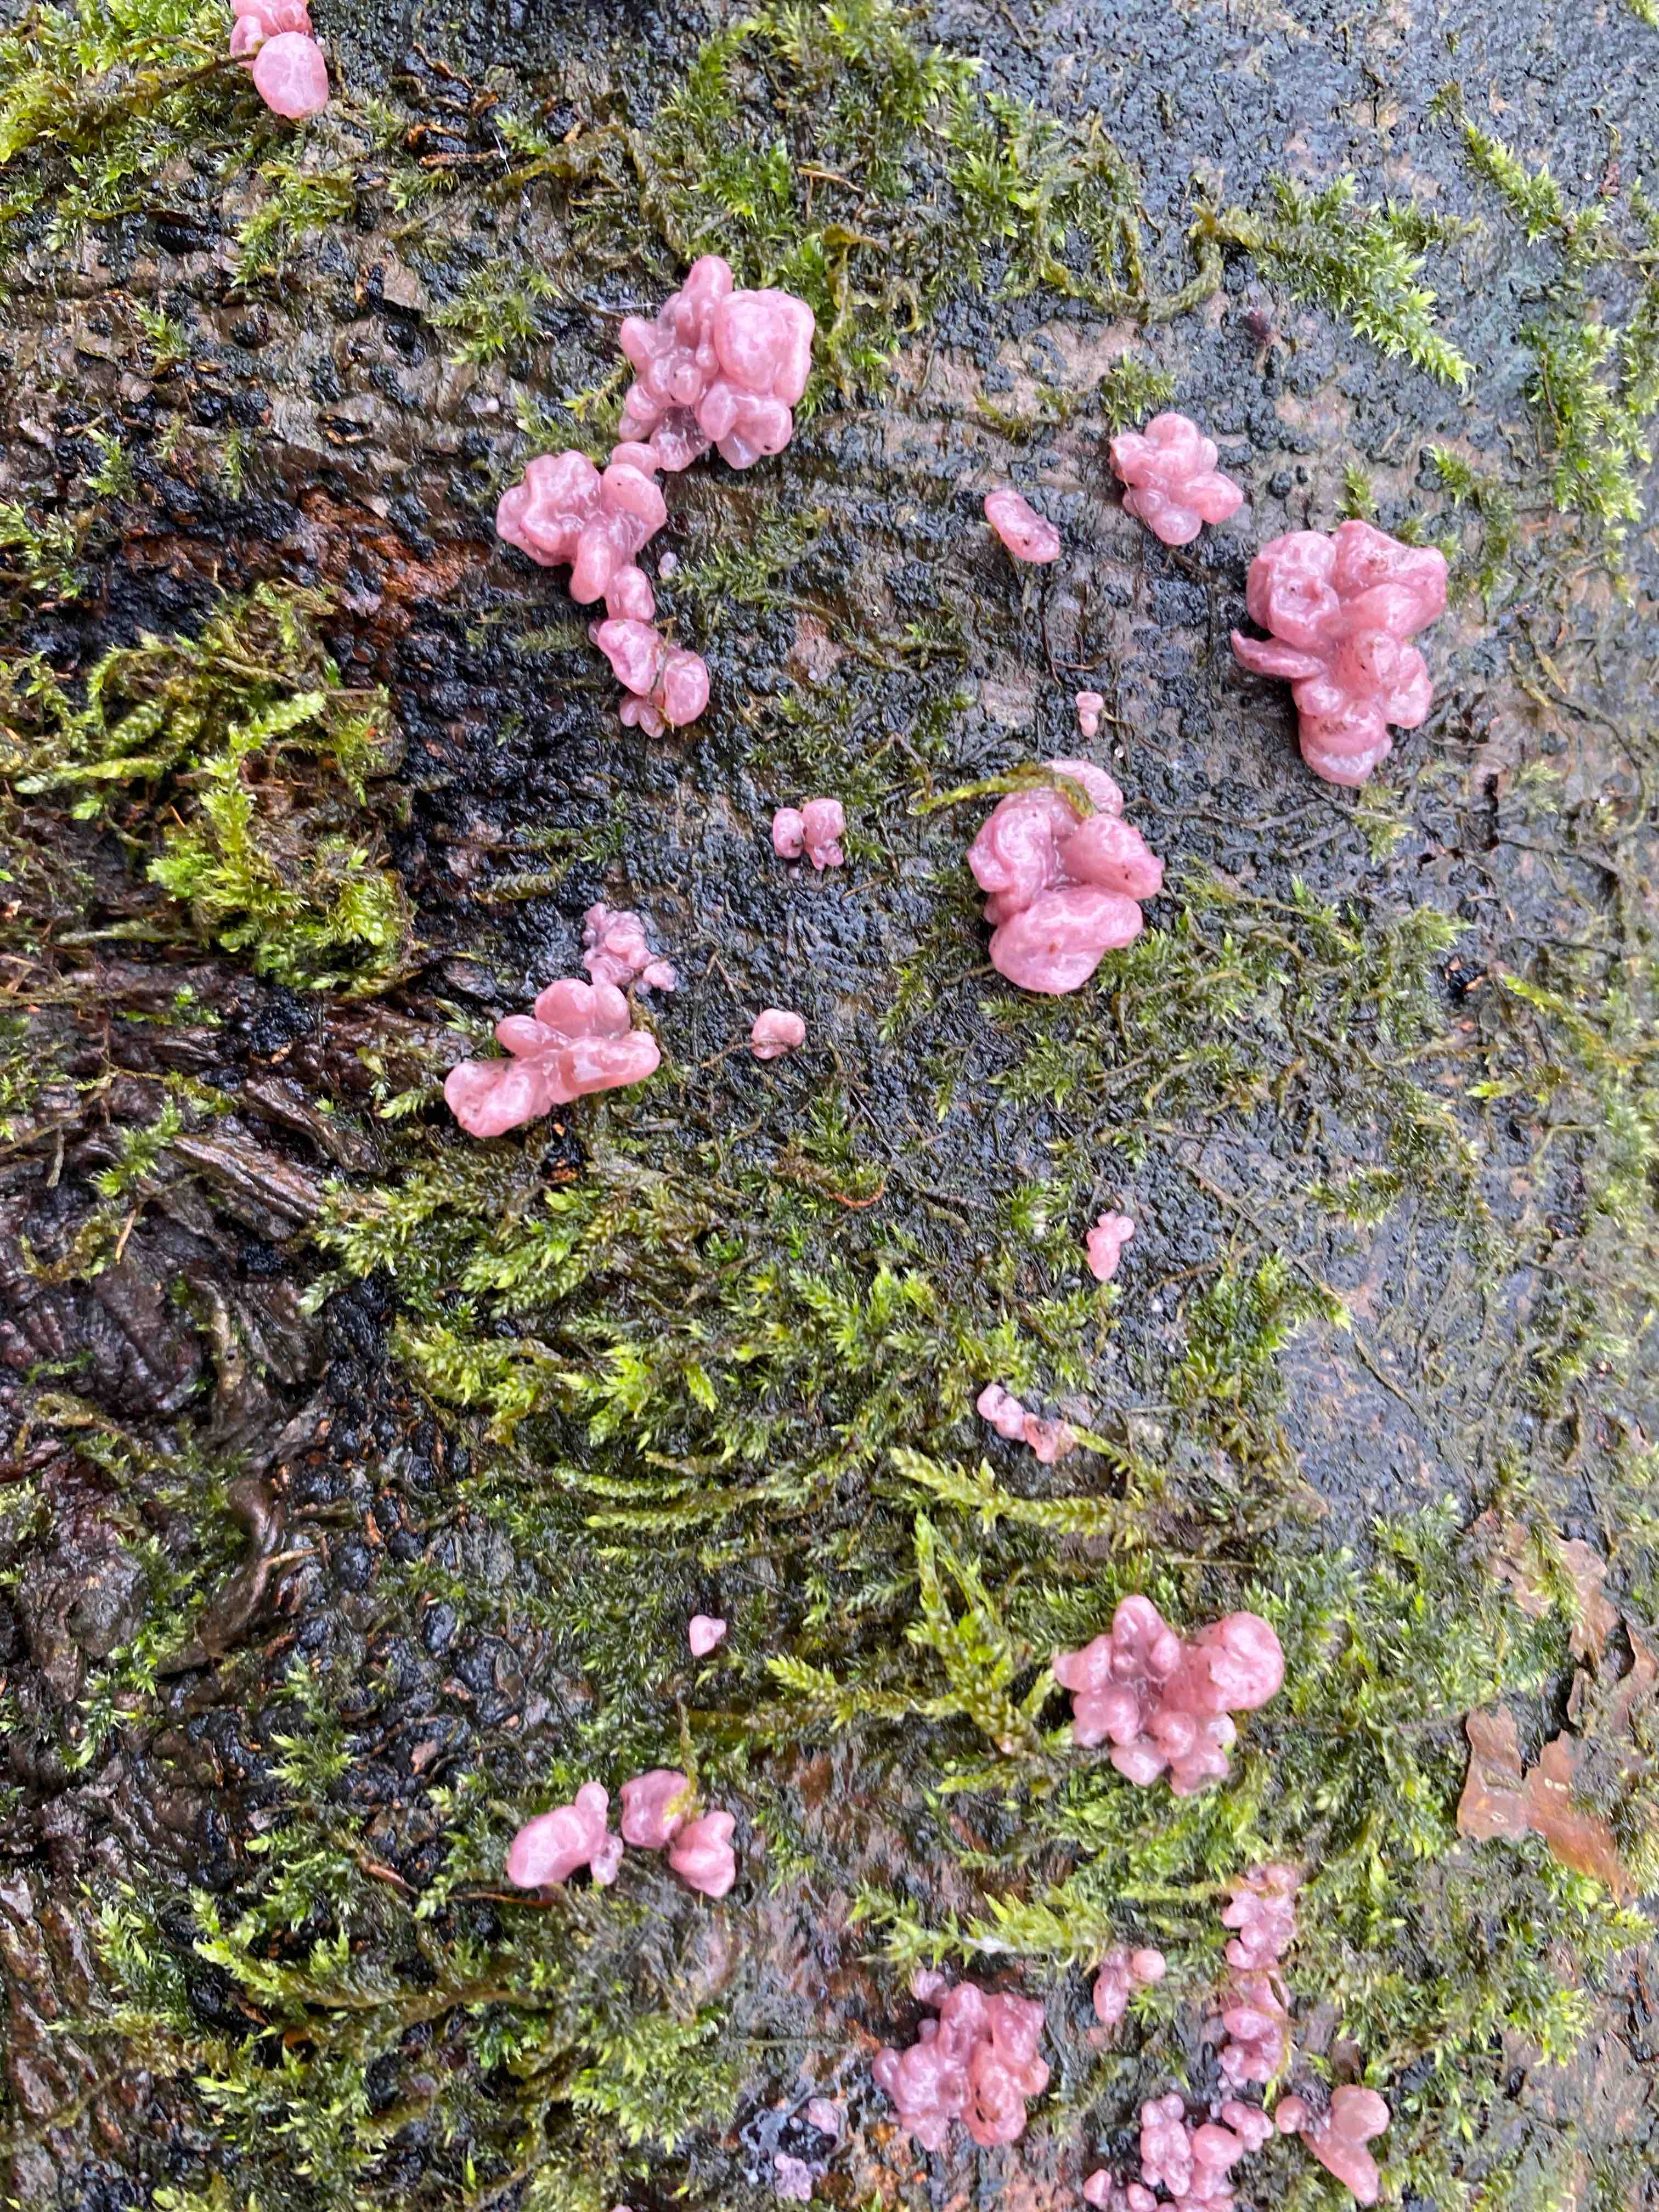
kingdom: Fungi
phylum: Ascomycota
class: Leotiomycetes
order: Helotiales
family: Gelatinodiscaceae
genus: Ascocoryne
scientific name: Ascocoryne sarcoides
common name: rødlilla sejskive
